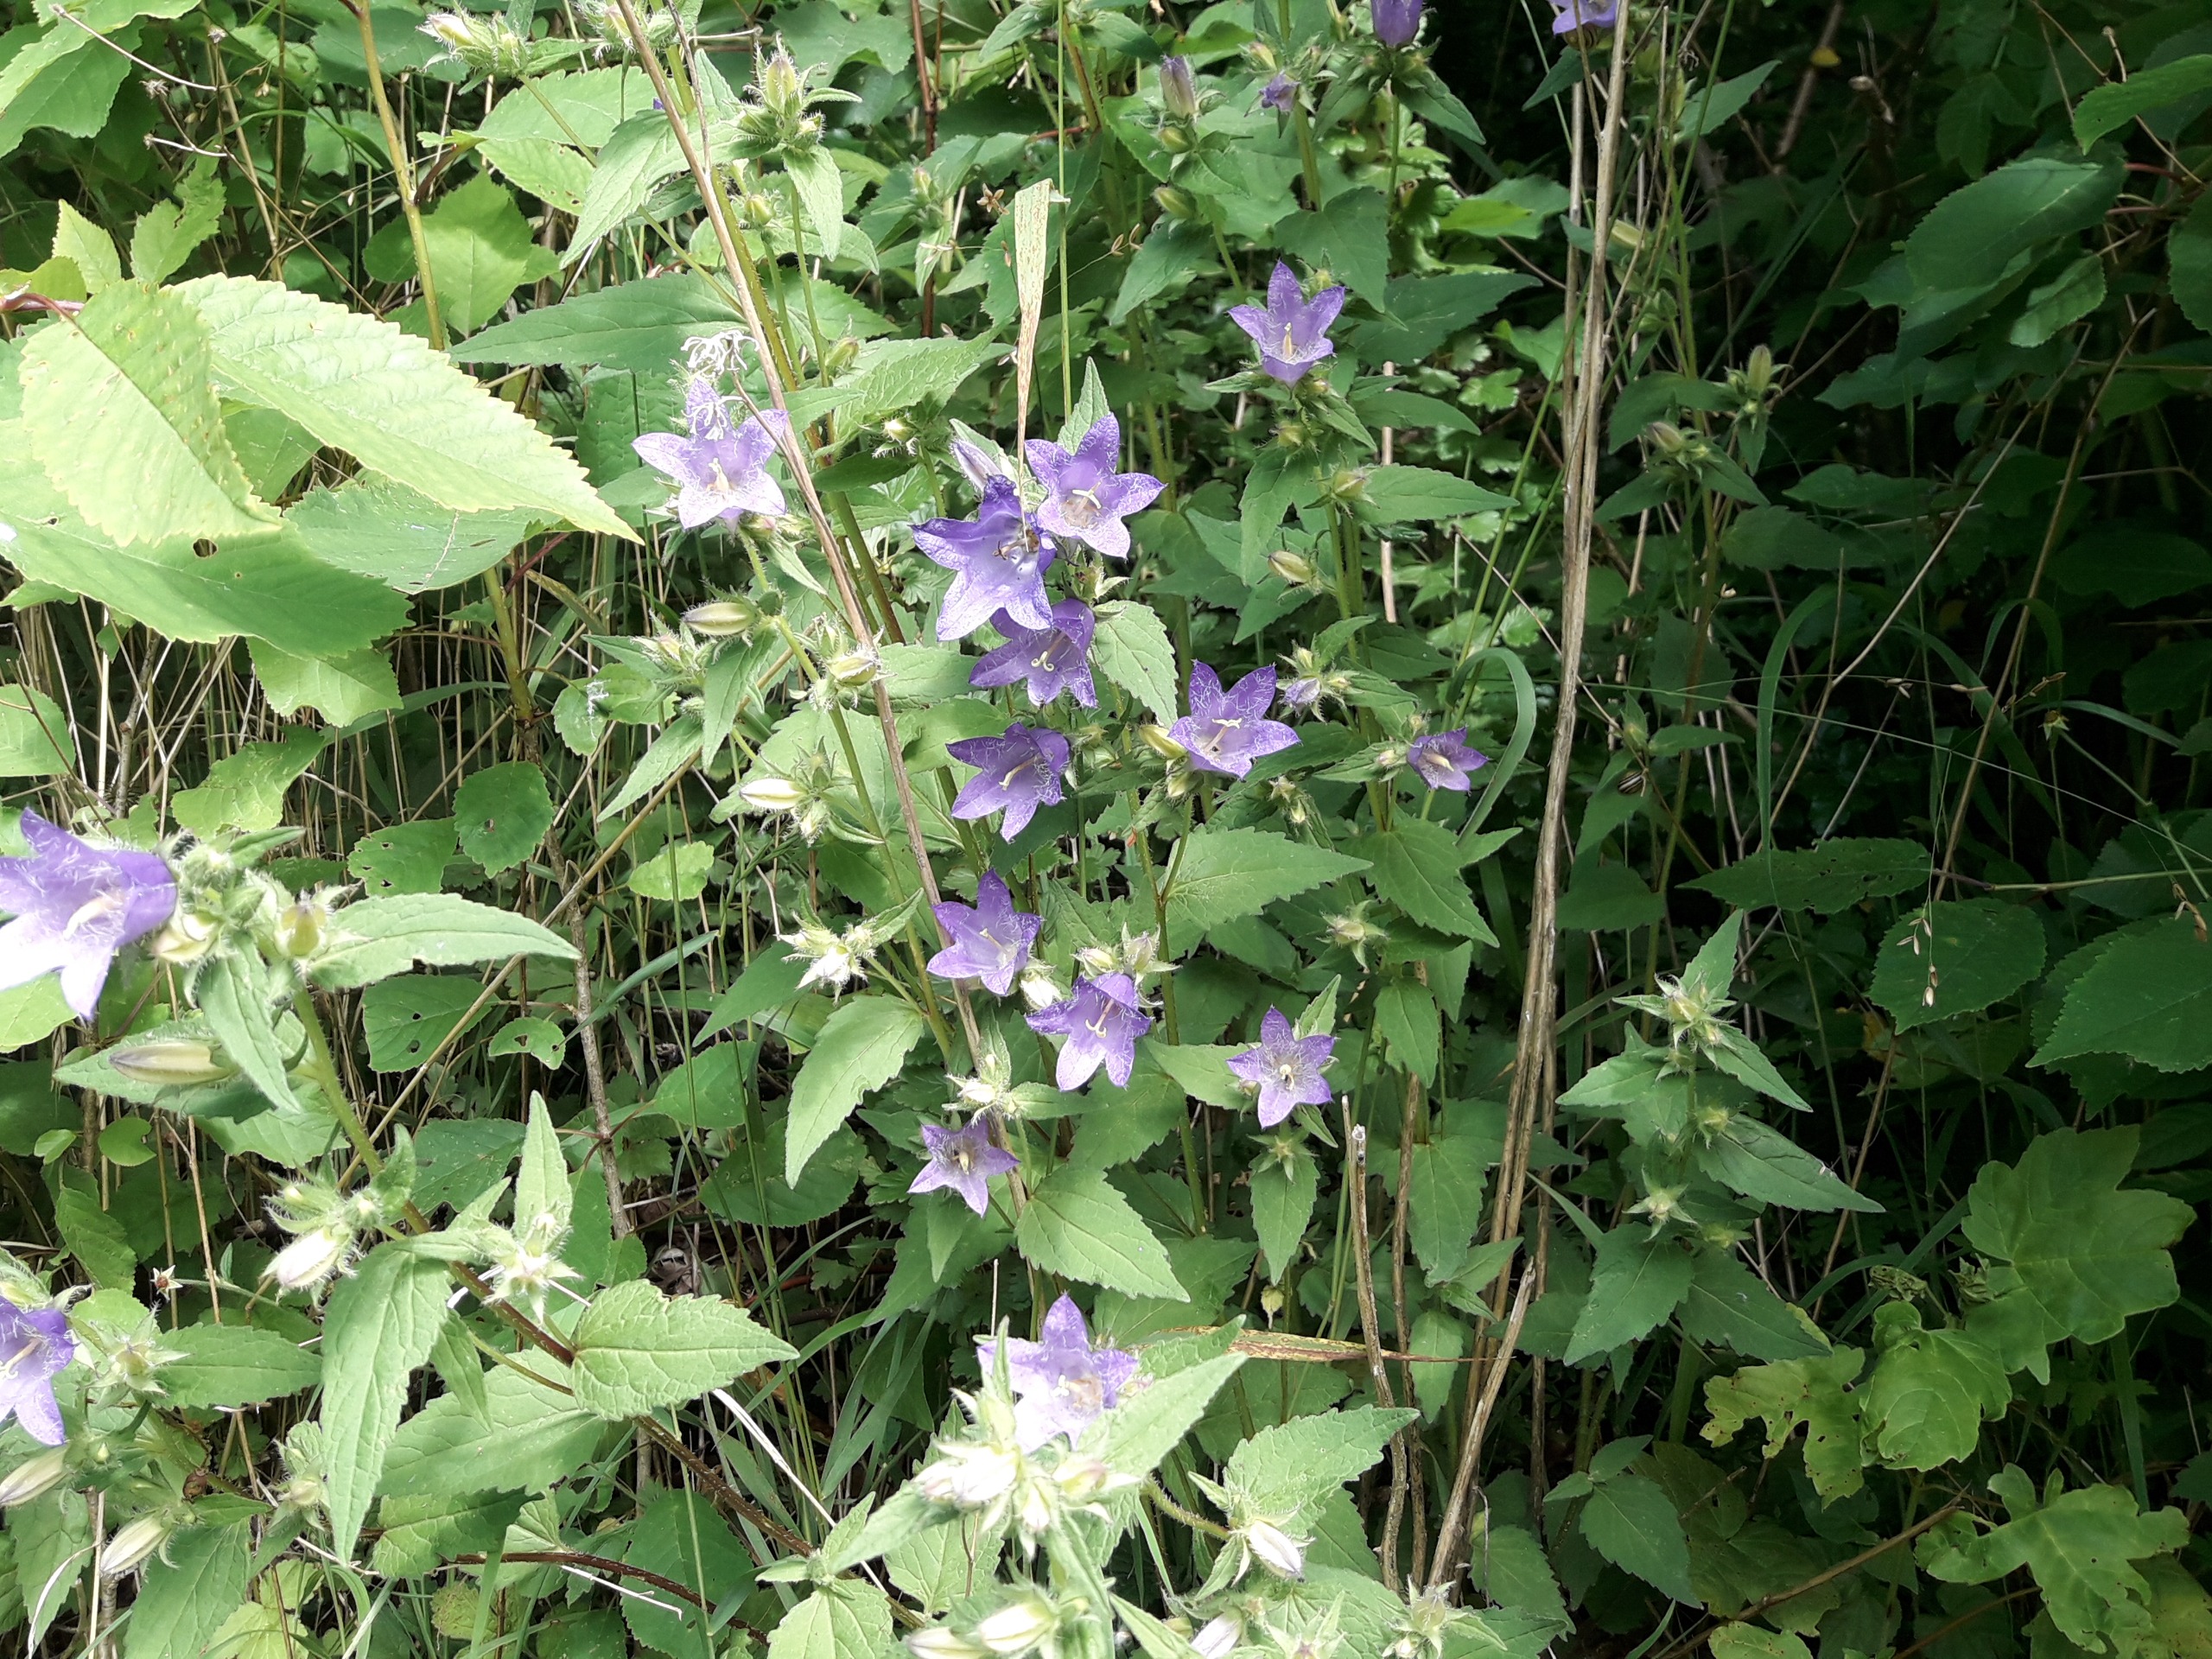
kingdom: Plantae
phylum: Tracheophyta
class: Magnoliopsida
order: Asterales
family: Campanulaceae
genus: Campanula
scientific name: Campanula trachelium
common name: Nælde-klokke
